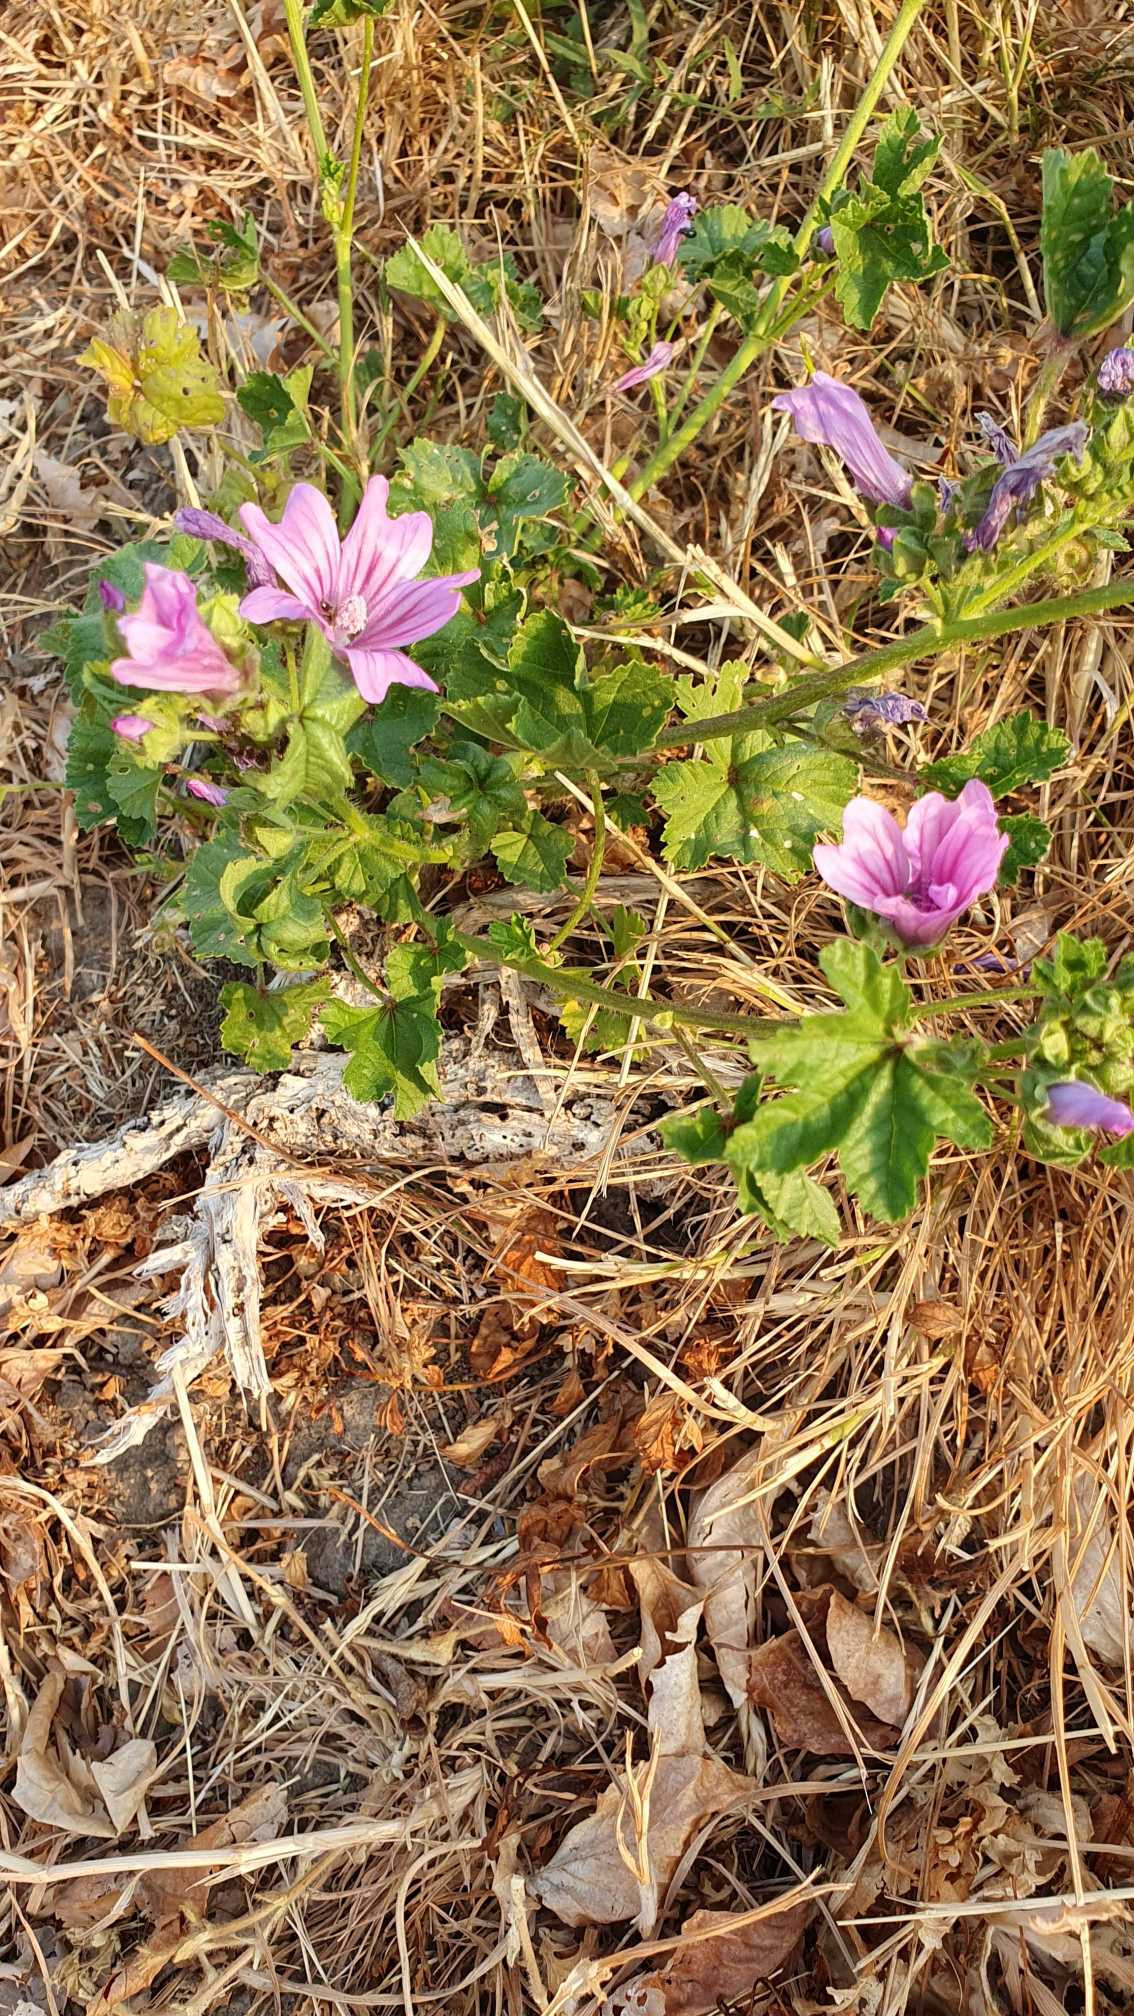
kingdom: Plantae
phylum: Tracheophyta
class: Magnoliopsida
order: Malvales
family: Malvaceae
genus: Malva
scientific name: Malva sylvestris
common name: Almindelig katost
